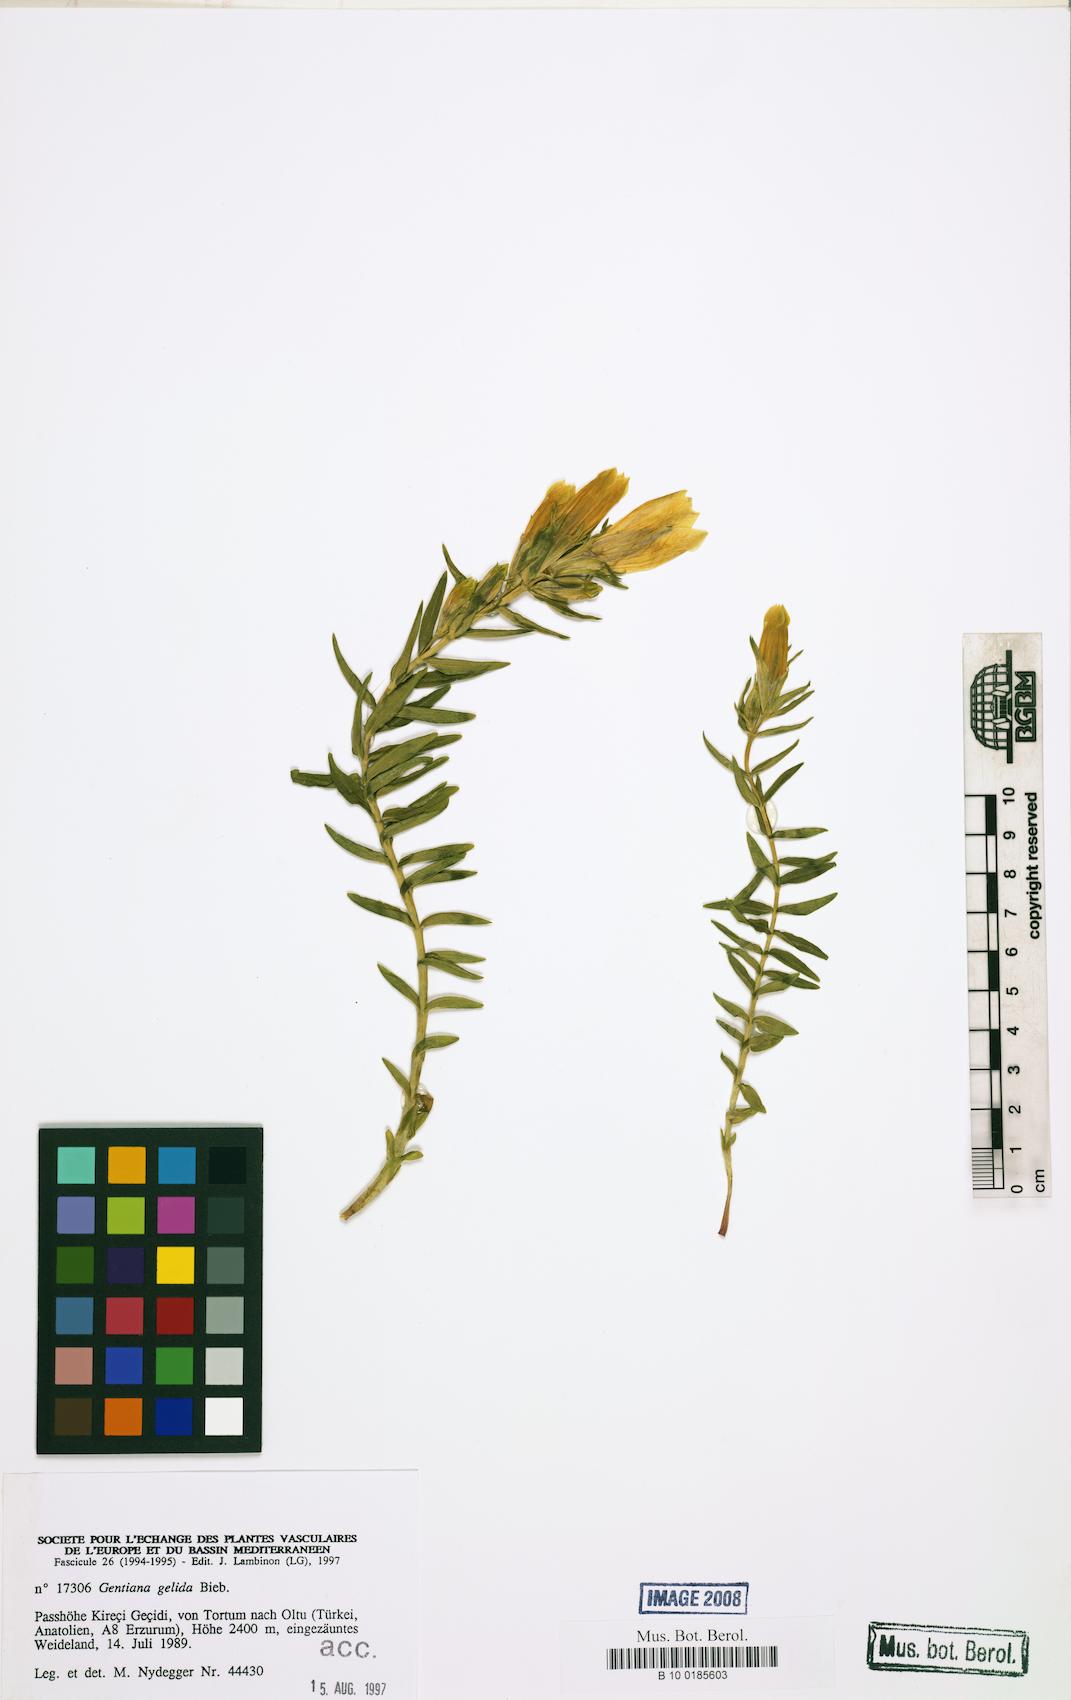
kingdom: Plantae
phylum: Tracheophyta
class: Magnoliopsida
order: Gentianales
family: Gentianaceae
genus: Gentiana
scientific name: Gentiana gelida
